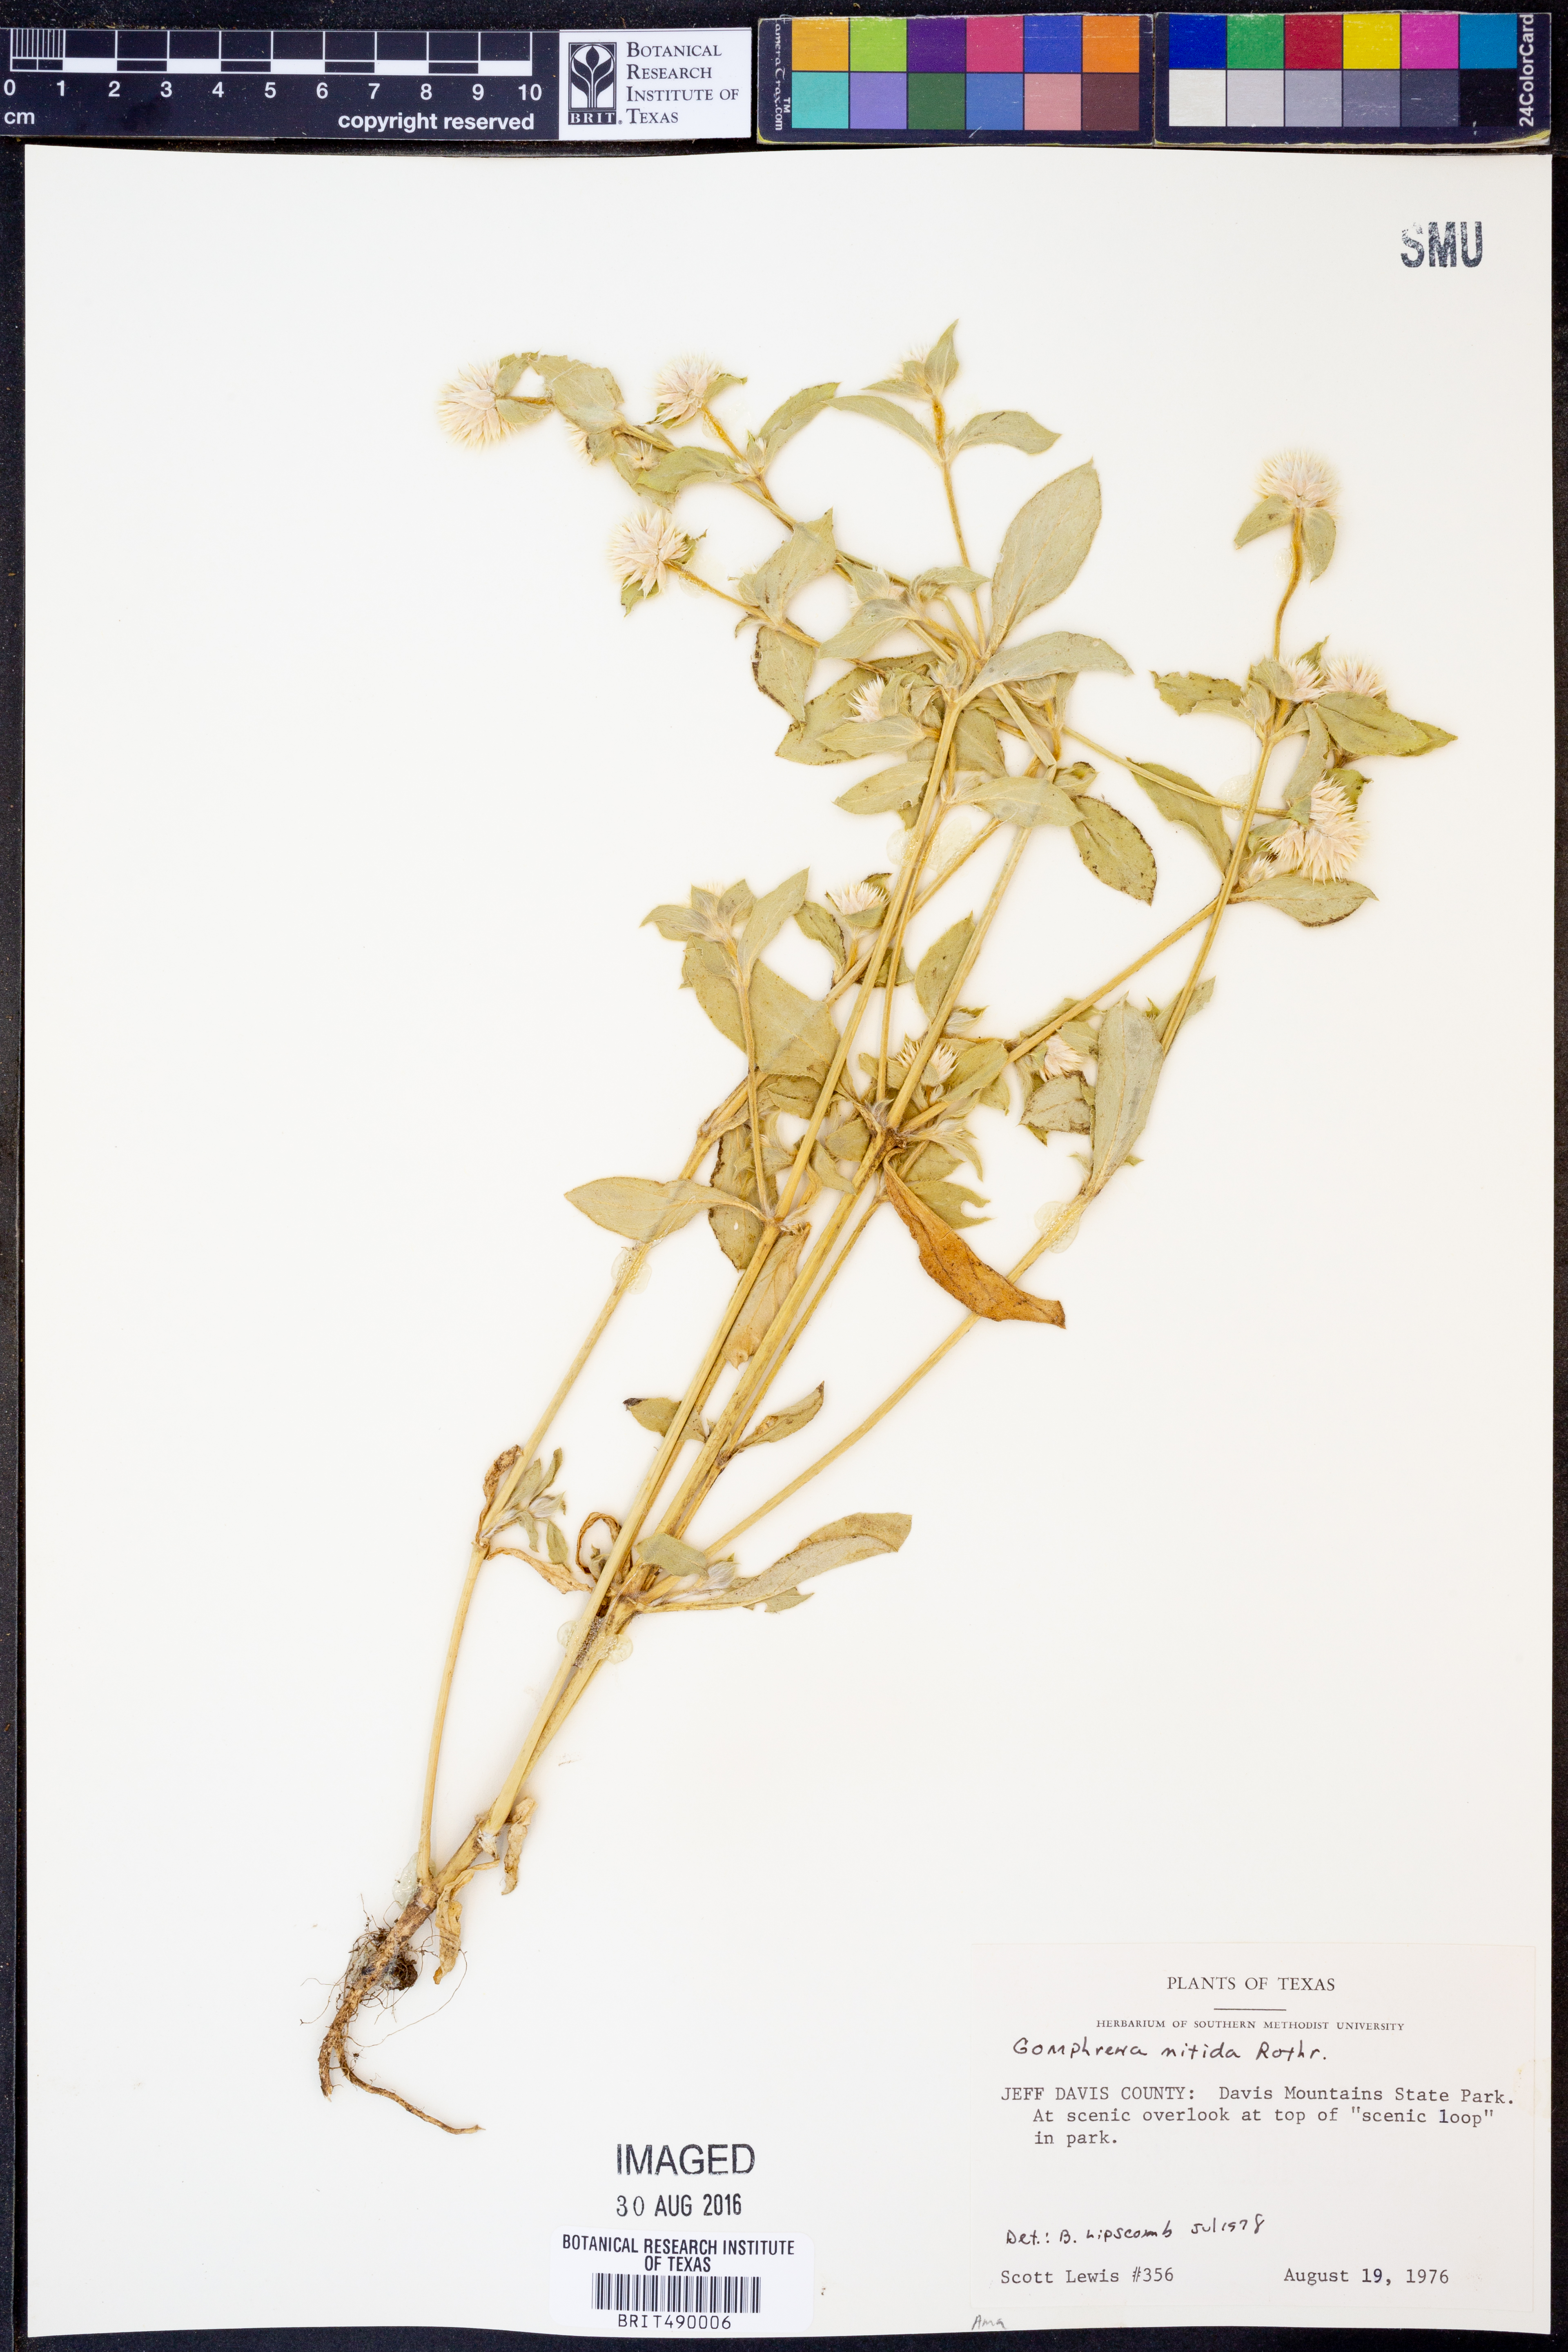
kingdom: Plantae
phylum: Tracheophyta
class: Magnoliopsida
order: Caryophyllales
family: Amaranthaceae
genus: Gomphrena
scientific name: Gomphrena nitida
